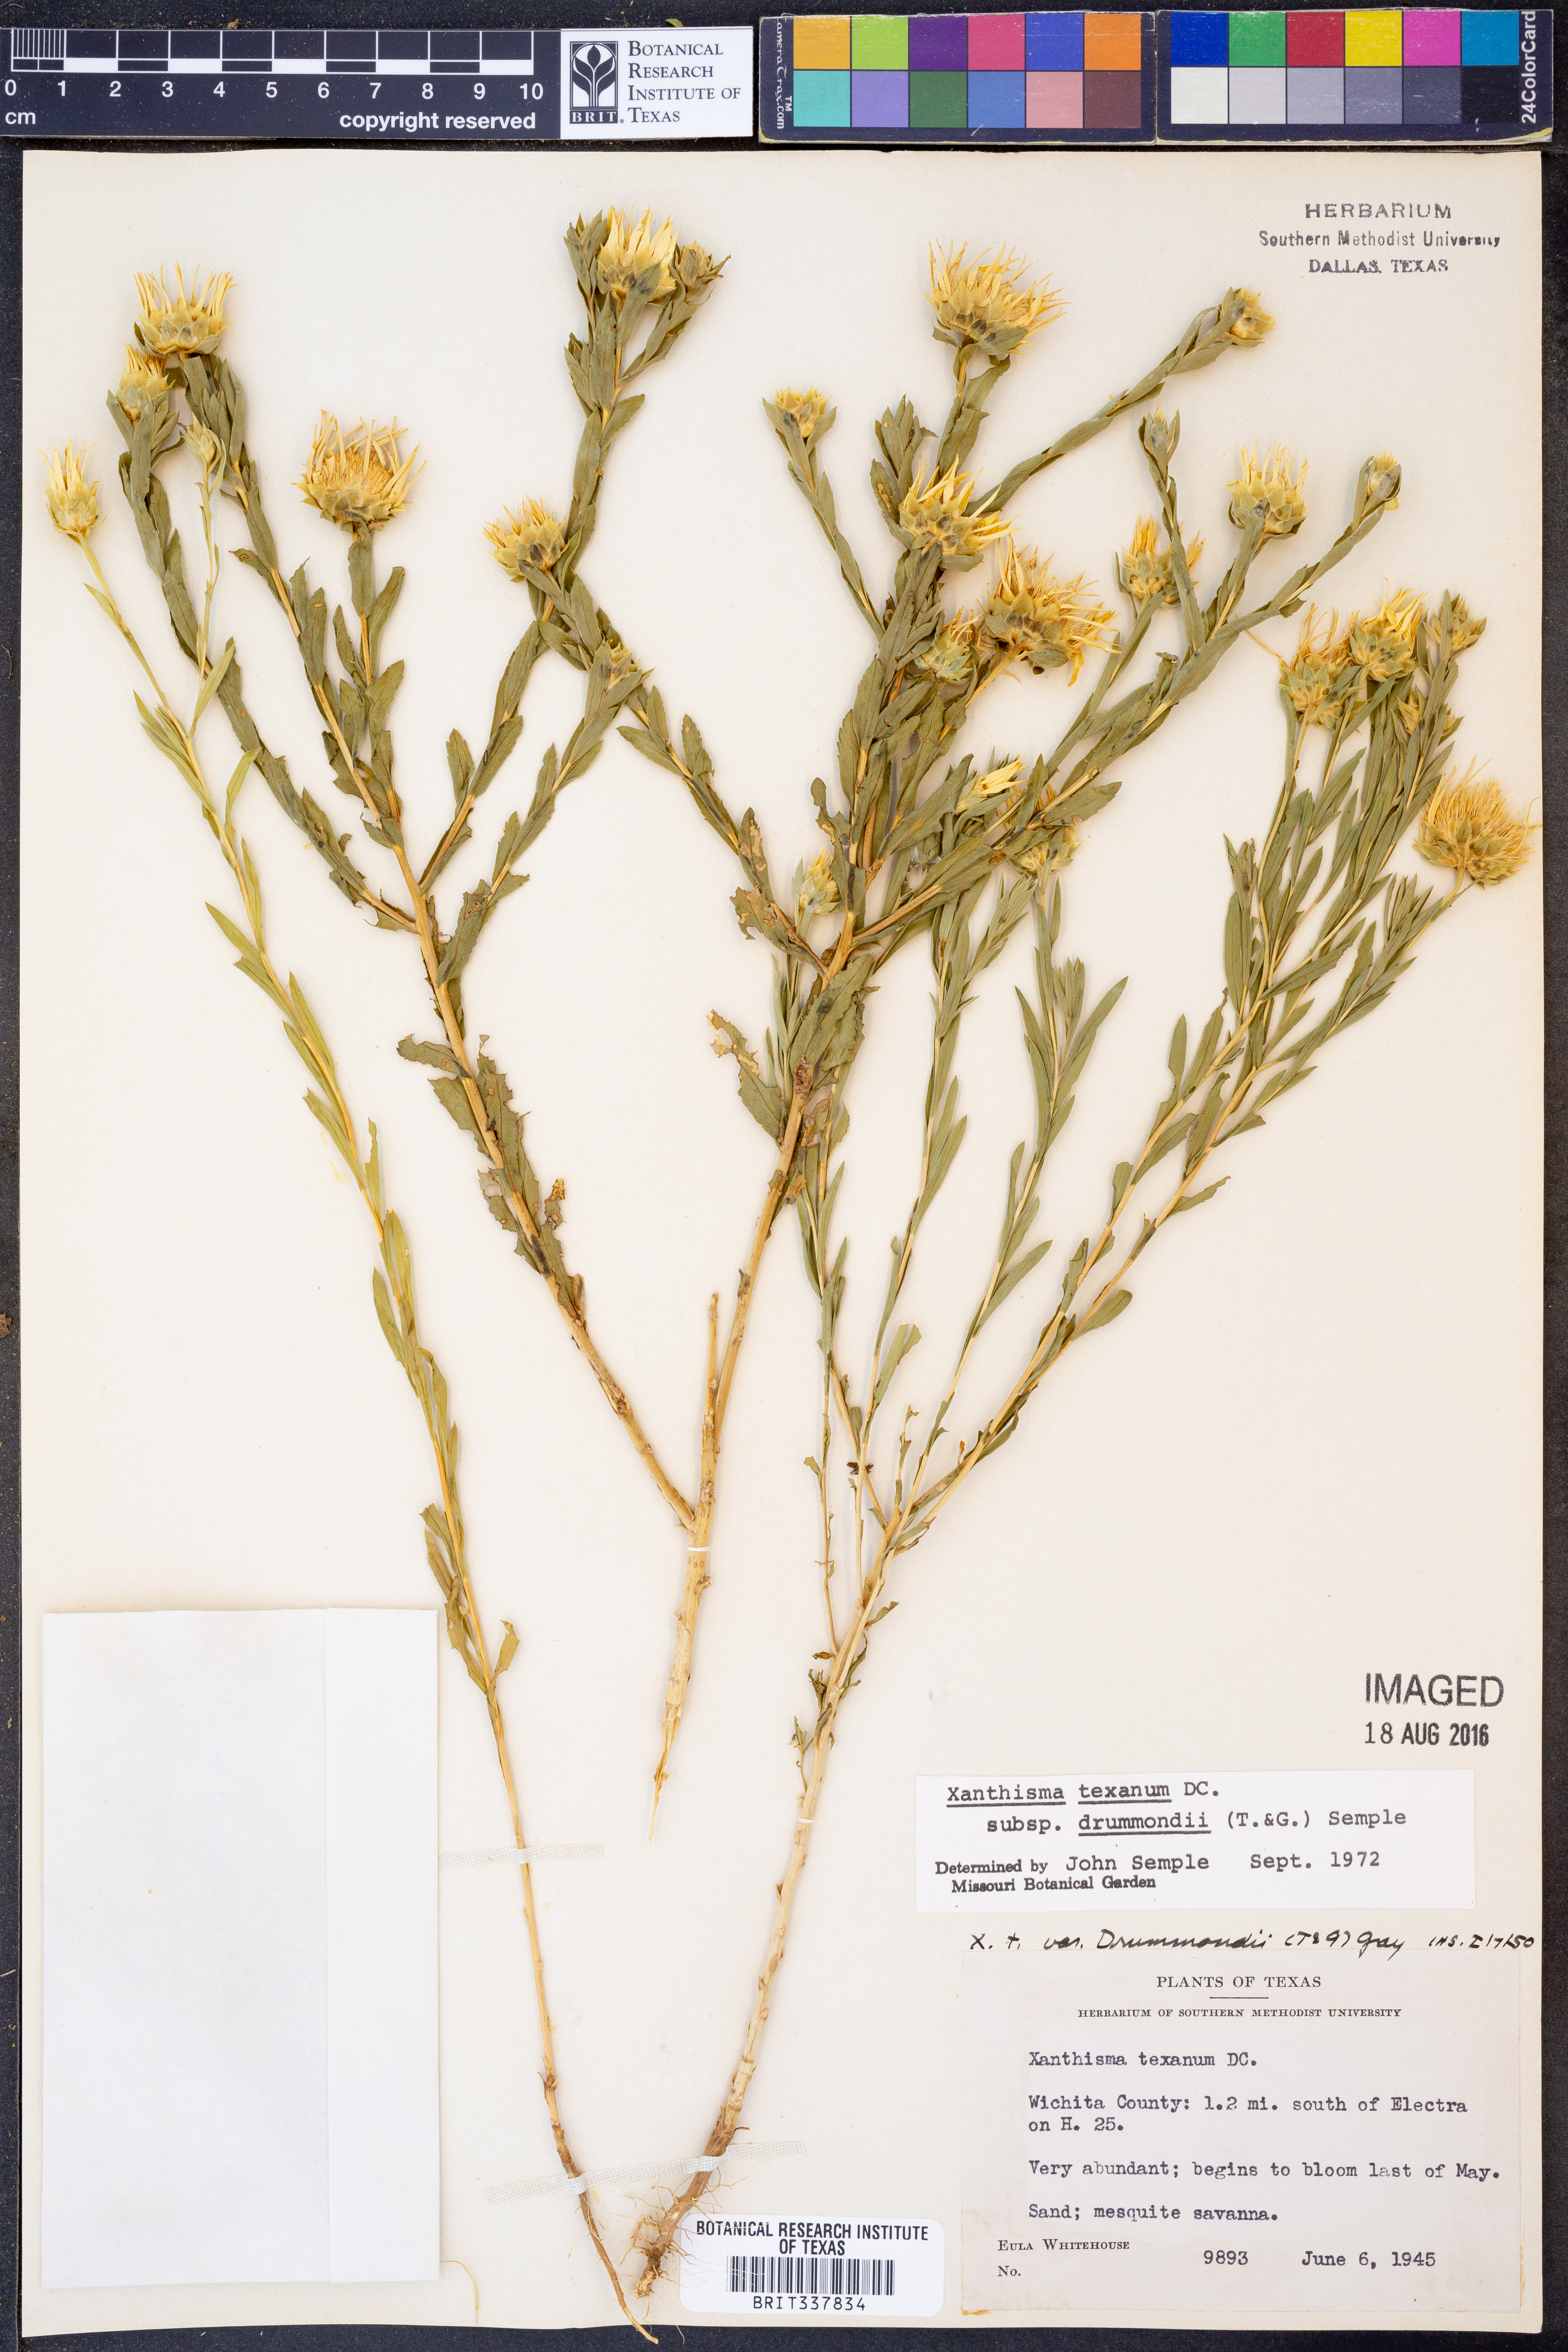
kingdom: Plantae
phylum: Tracheophyta
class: Magnoliopsida
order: Asterales
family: Asteraceae
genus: Xanthisma
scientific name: Xanthisma texanum
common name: Texas sleepy daisy
